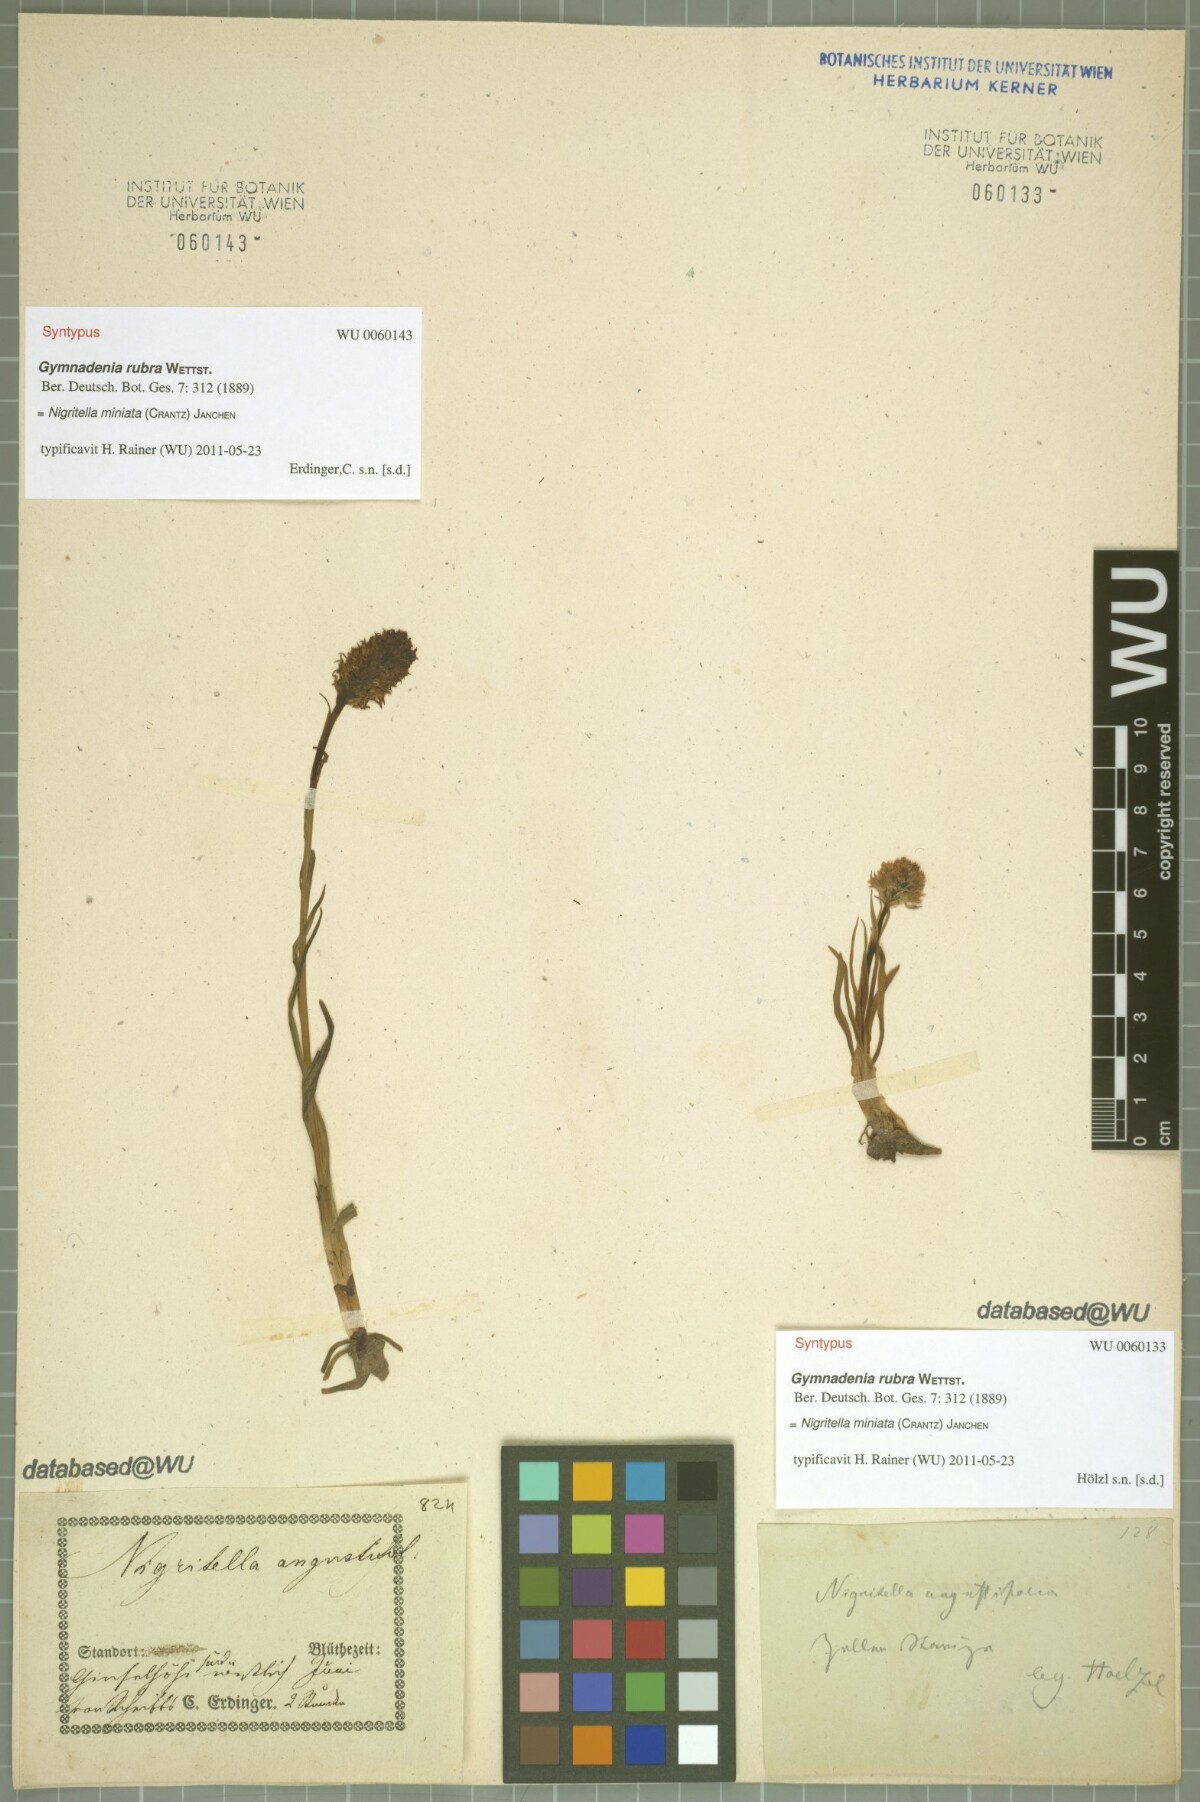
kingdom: Plantae
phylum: Tracheophyta
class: Liliopsida
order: Asparagales
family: Orchidaceae
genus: Gymnadenia
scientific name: Gymnadenia miniata
